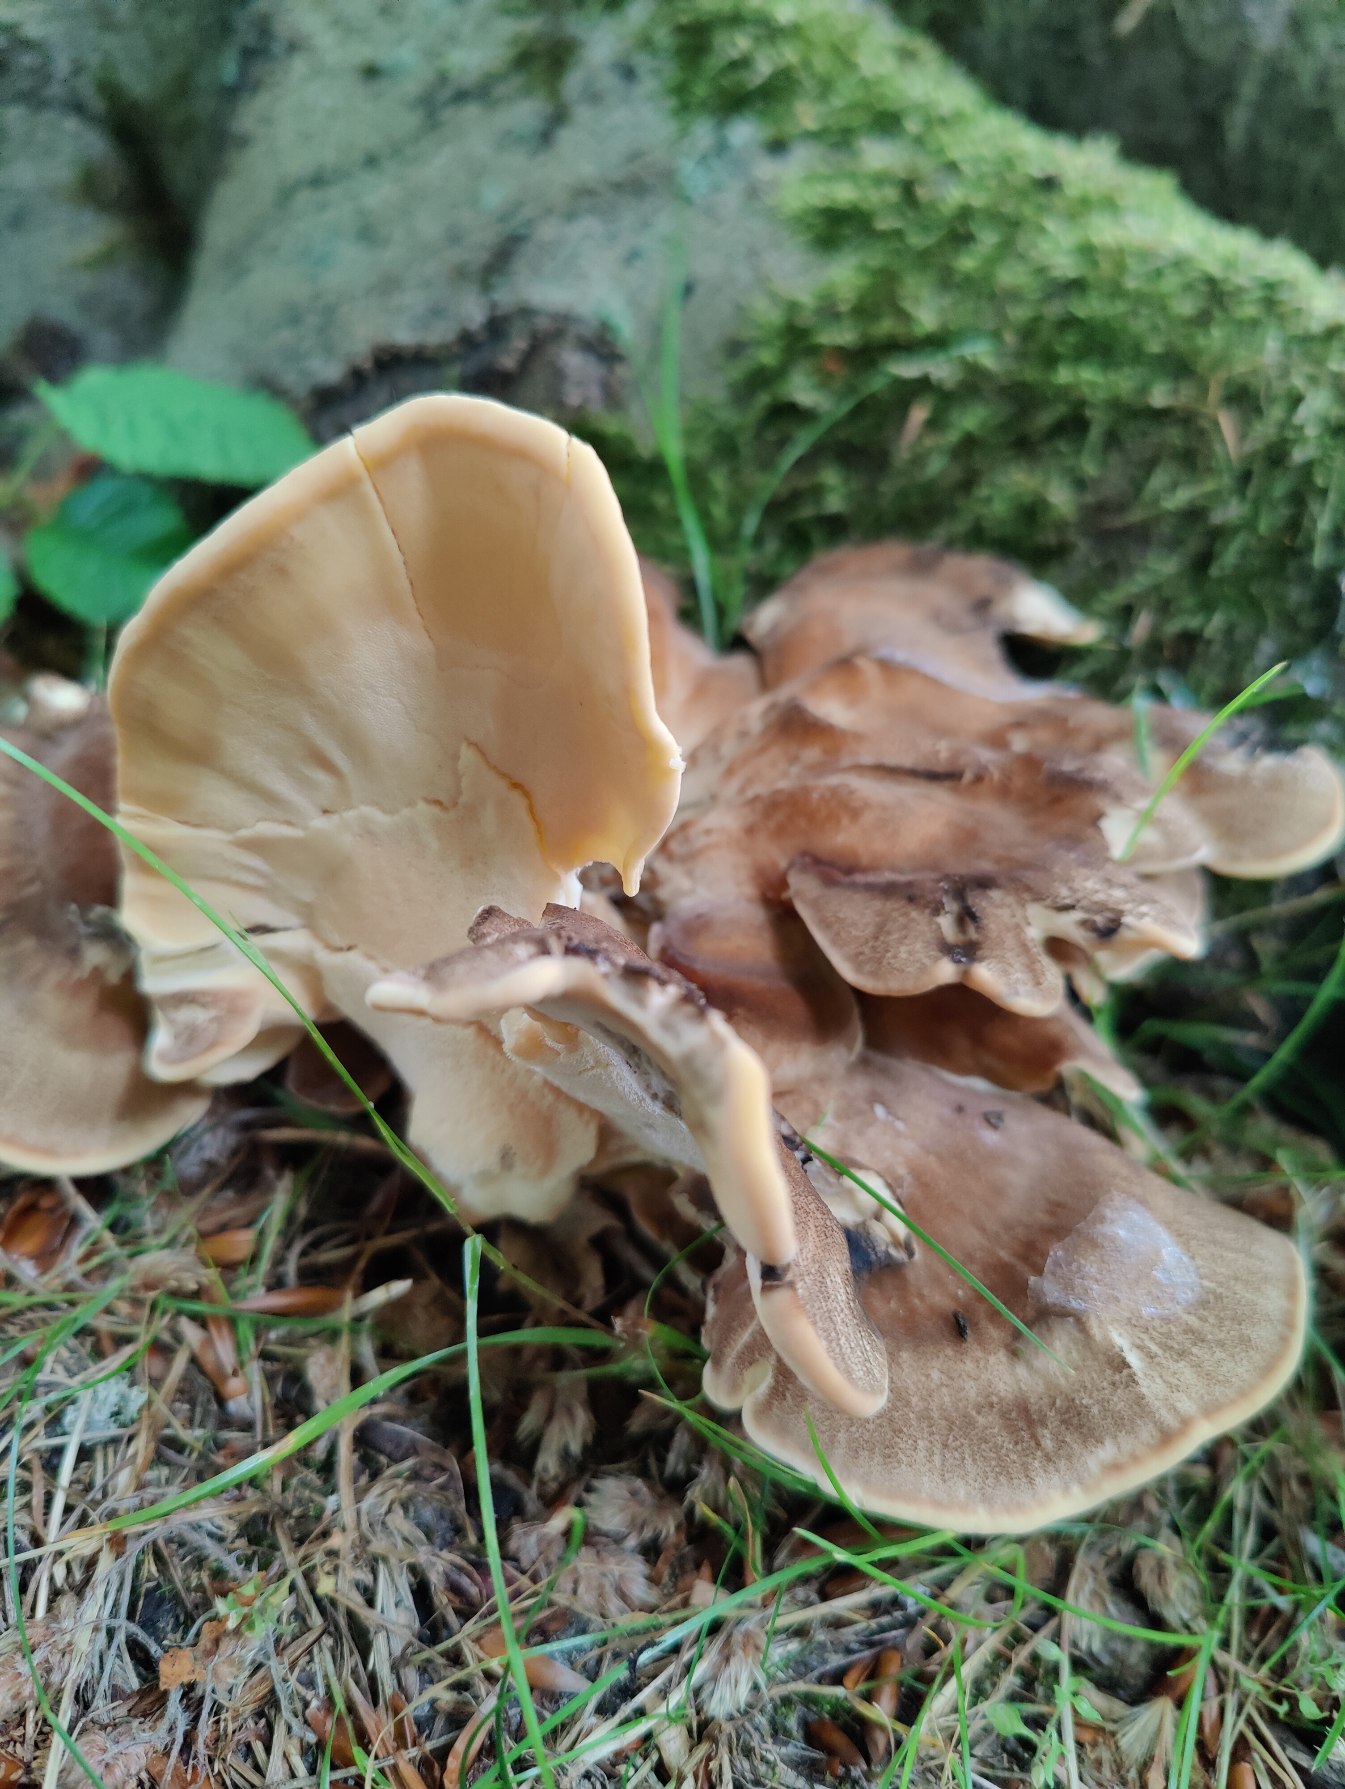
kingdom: Fungi
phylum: Basidiomycota
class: Agaricomycetes
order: Polyporales
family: Meripilaceae
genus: Meripilus
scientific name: Meripilus giganteus
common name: Kæmpeporesvamp
